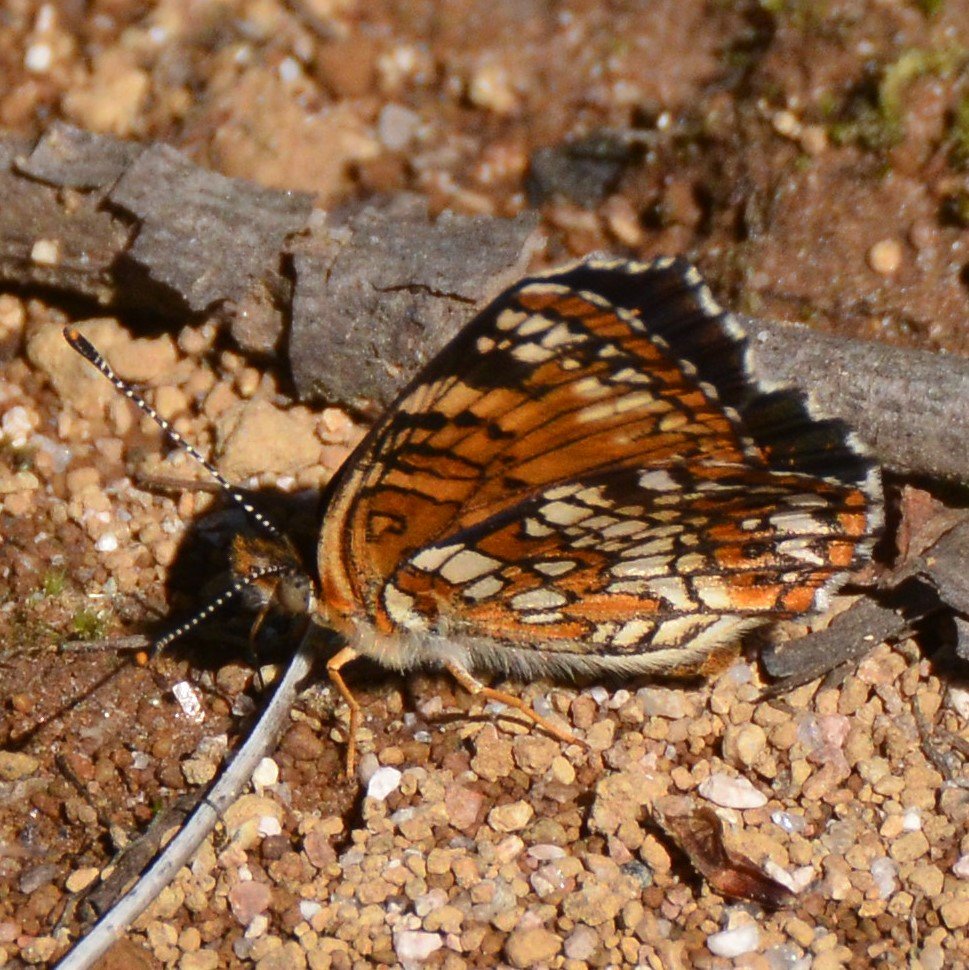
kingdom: Animalia
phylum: Arthropoda
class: Insecta
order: Lepidoptera
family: Nymphalidae
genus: Chlosyne
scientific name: Chlosyne harrisii
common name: Harris's Checkerspot
